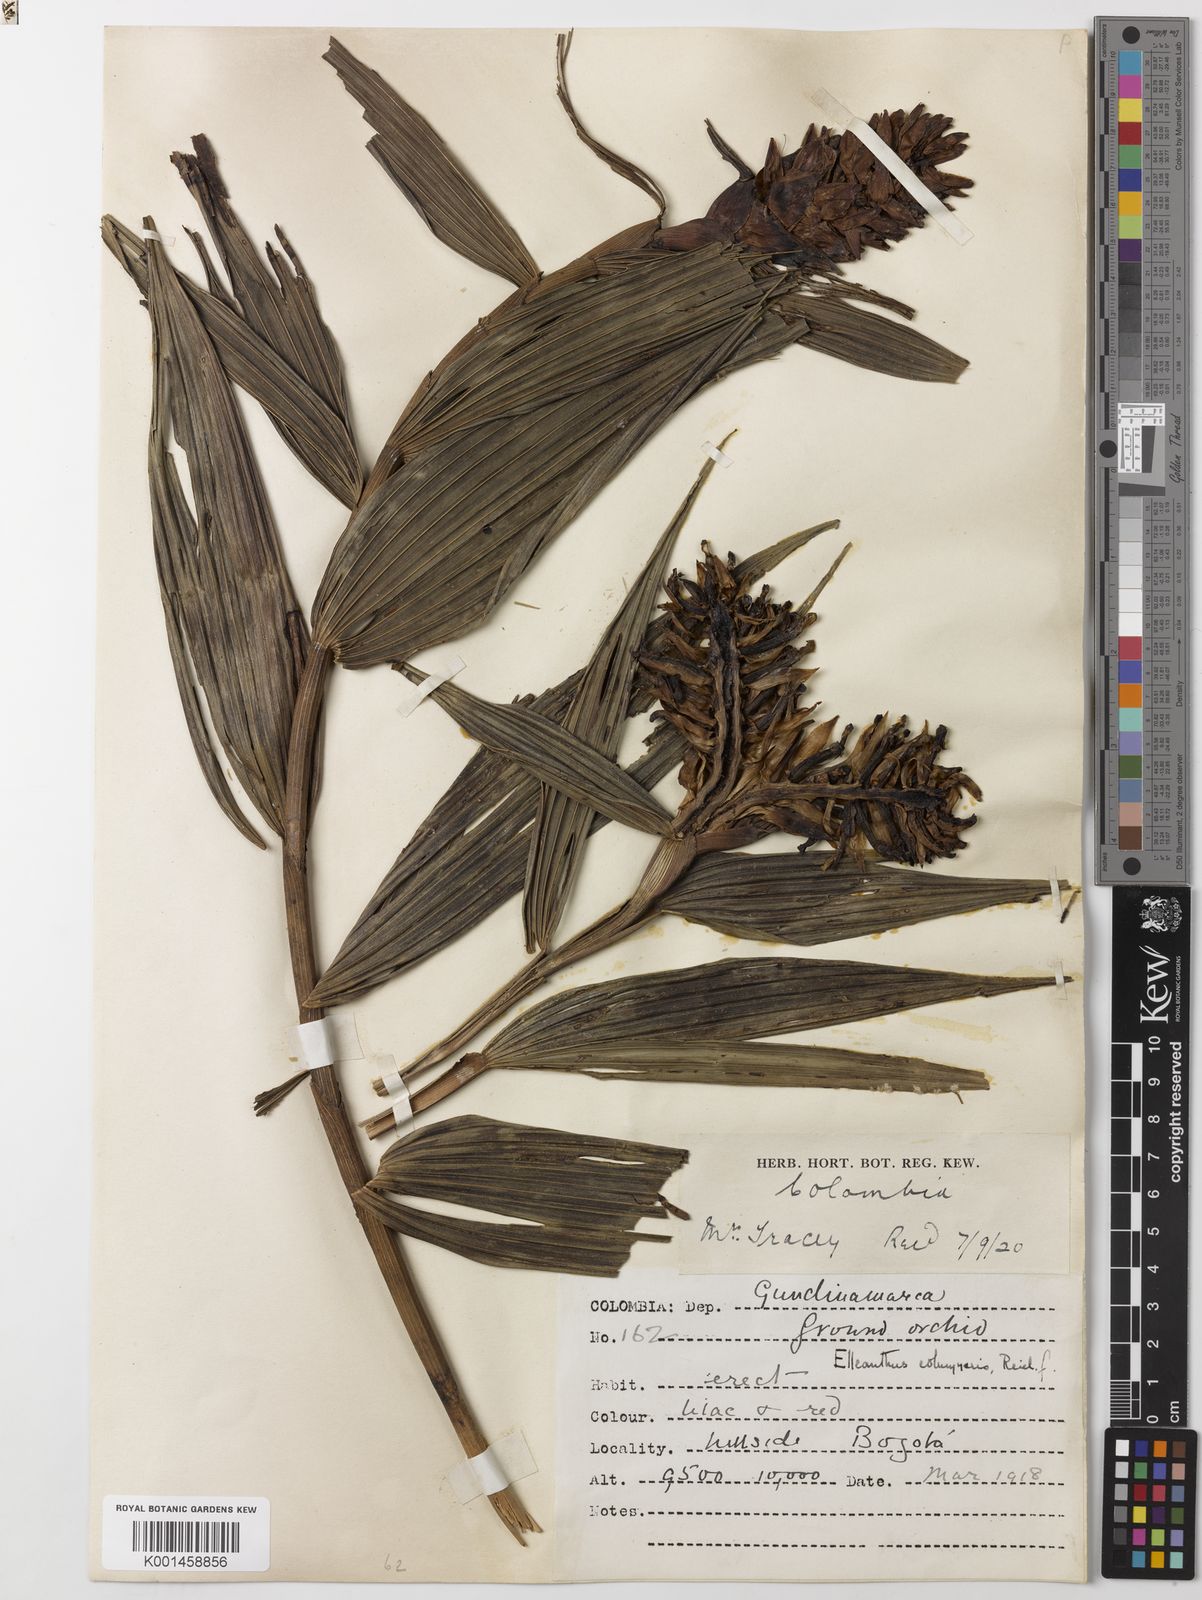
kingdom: Plantae
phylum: Tracheophyta
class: Liliopsida
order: Asparagales
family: Orchidaceae
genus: Elleanthus
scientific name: Elleanthus columnaris
